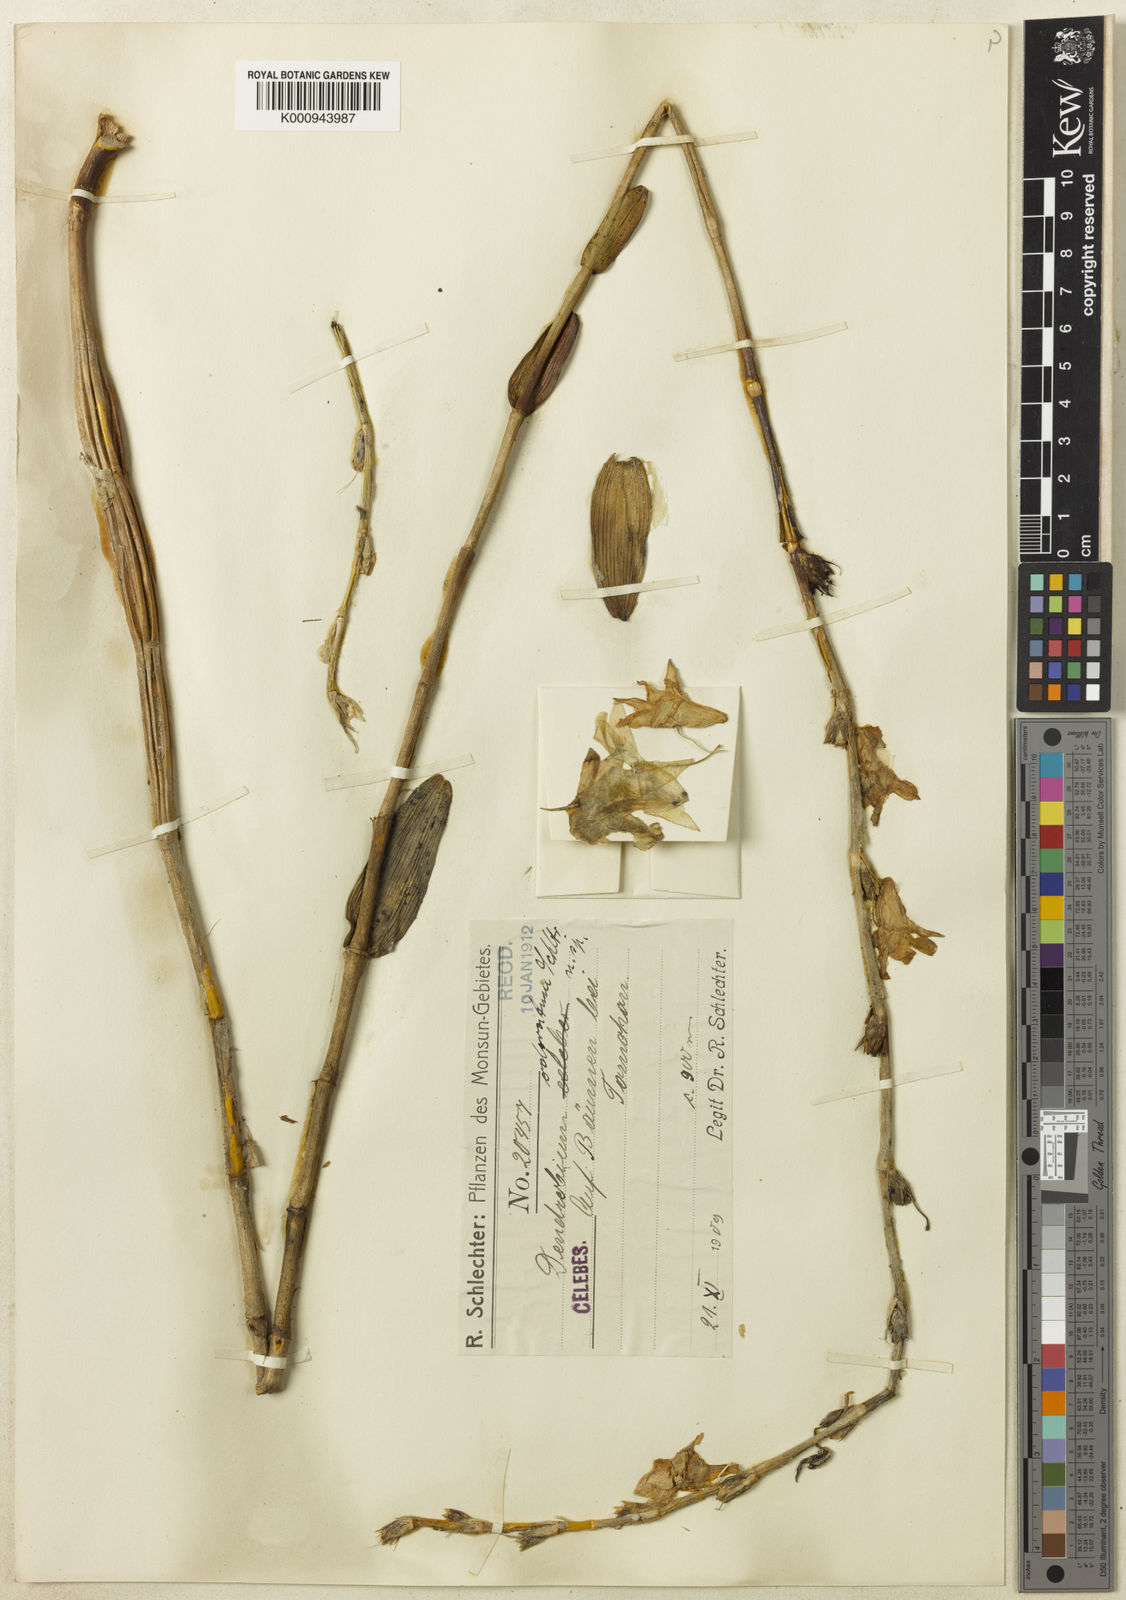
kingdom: Plantae
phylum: Tracheophyta
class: Liliopsida
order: Asparagales
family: Orchidaceae
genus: Dendrobium
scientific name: Dendrobium odoratum
